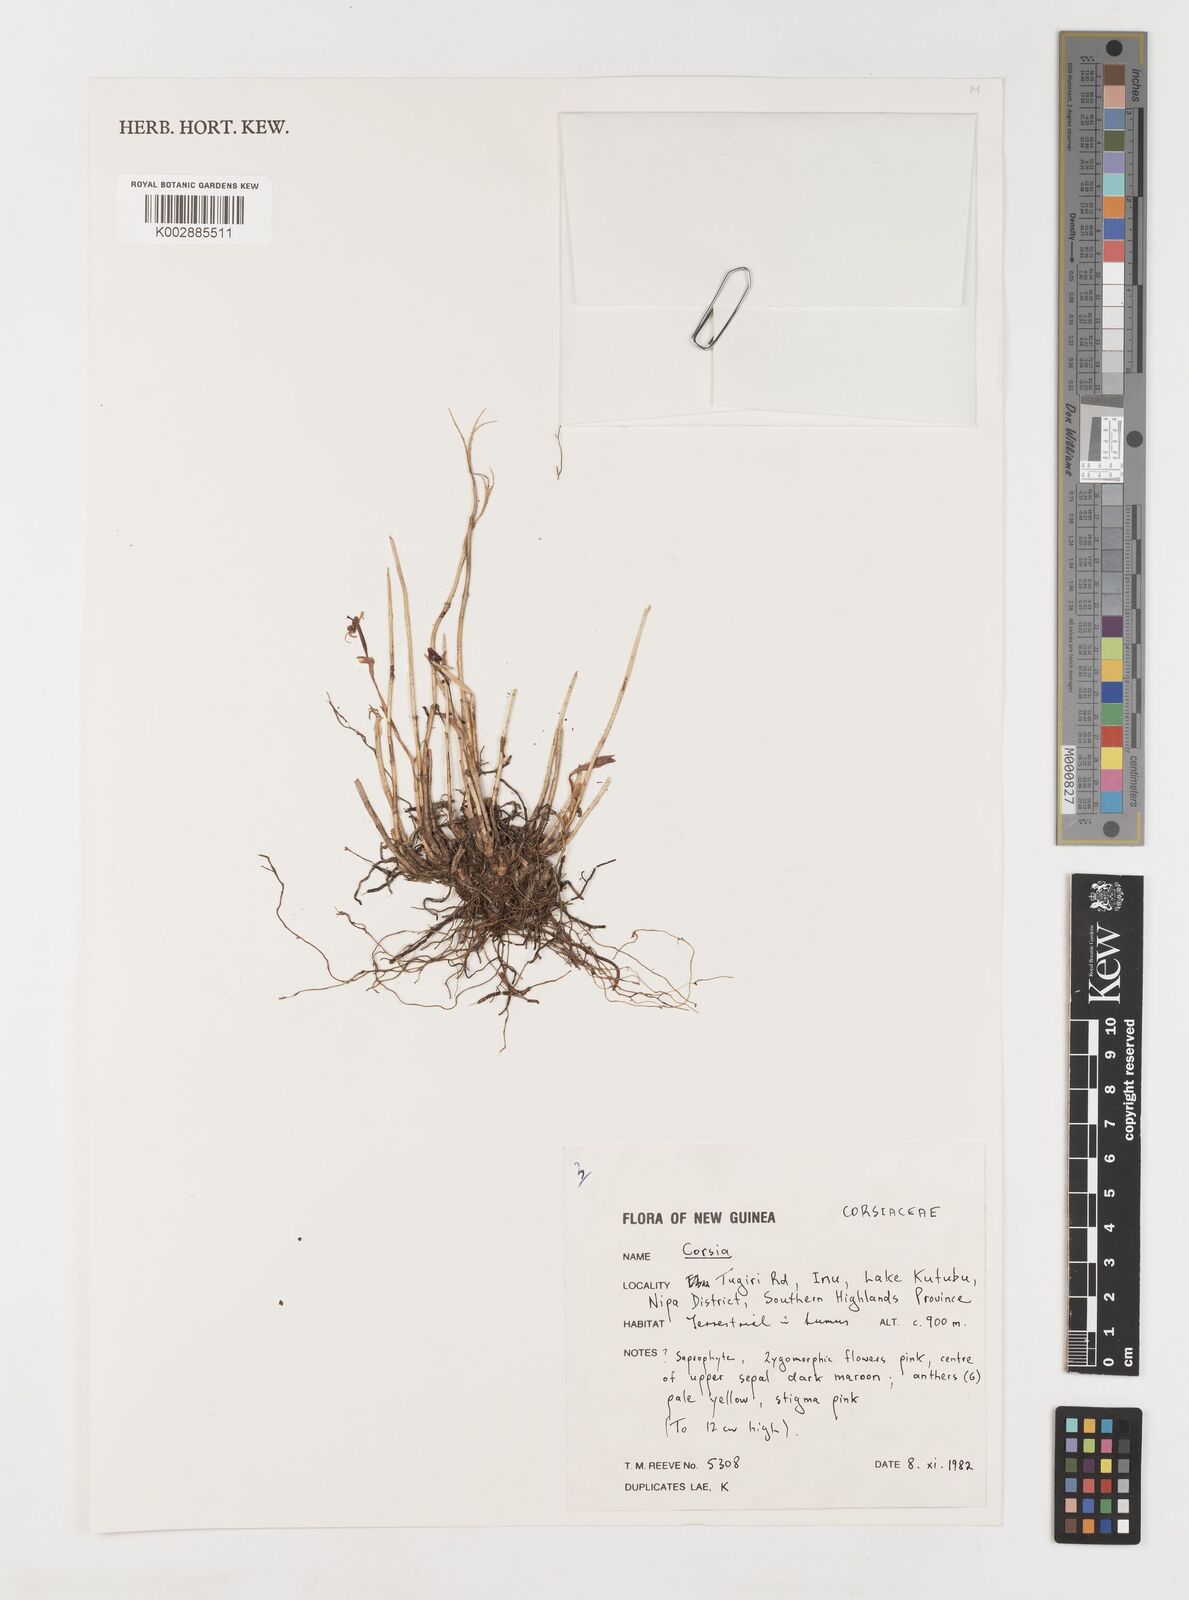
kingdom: Plantae
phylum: Tracheophyta
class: Liliopsida
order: Liliales
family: Corsiaceae
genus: Corsia
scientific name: Corsia
